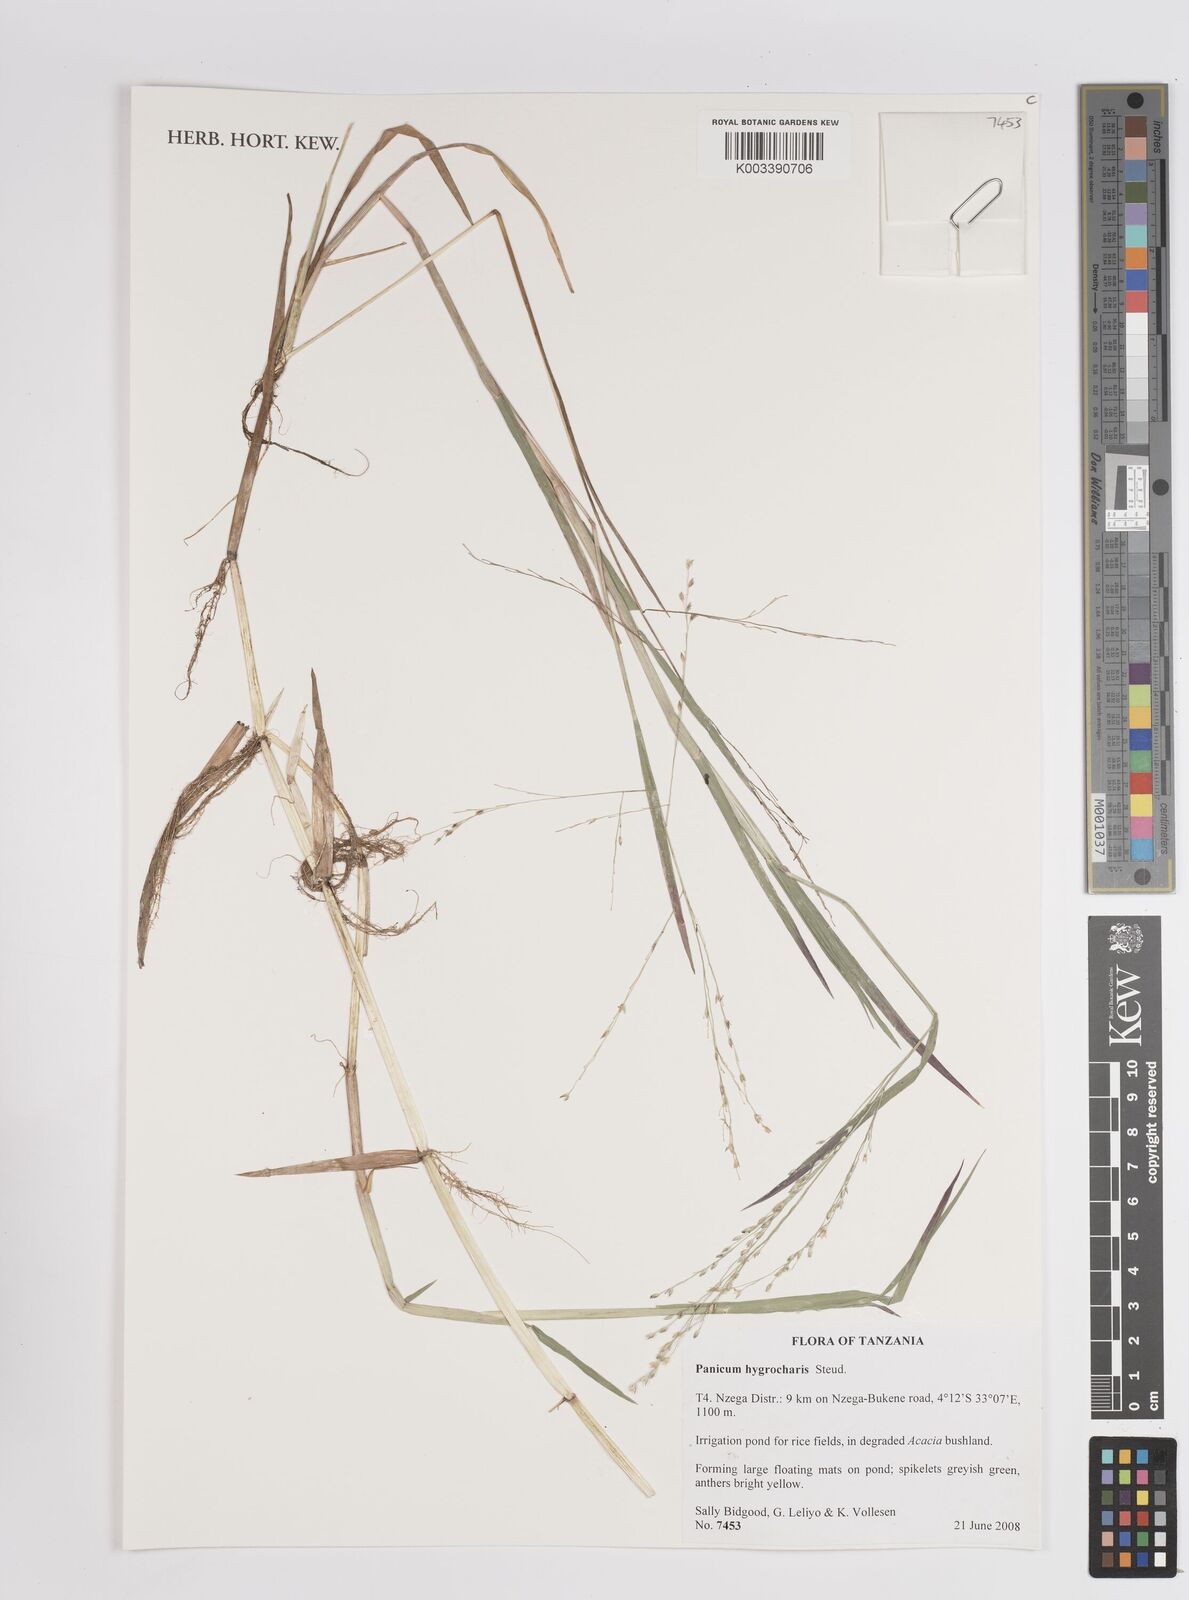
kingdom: Plantae
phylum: Tracheophyta
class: Liliopsida
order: Poales
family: Poaceae
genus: Panicum
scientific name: Panicum hygrocharis
